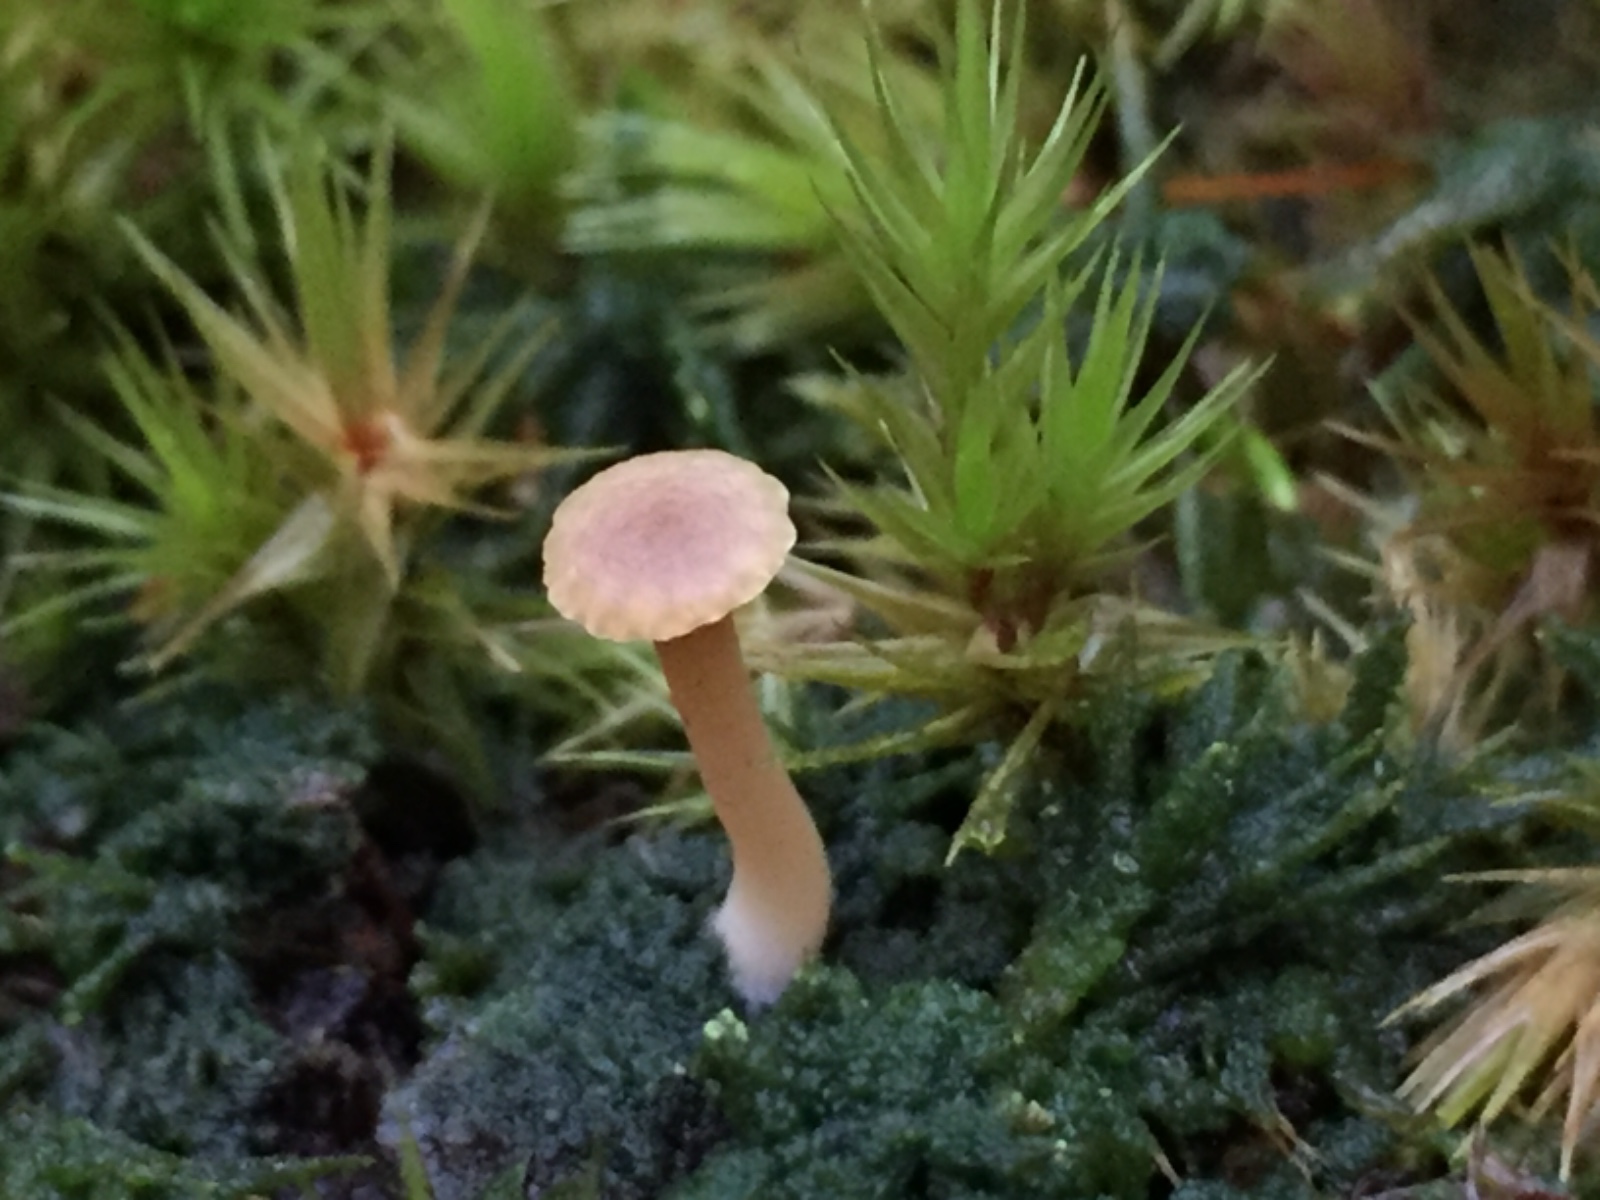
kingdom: Fungi
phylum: Basidiomycota
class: Agaricomycetes
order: Agaricales
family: Hygrophoraceae
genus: Lichenomphalia
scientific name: Lichenomphalia umbellifera
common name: tørve-lavhat
